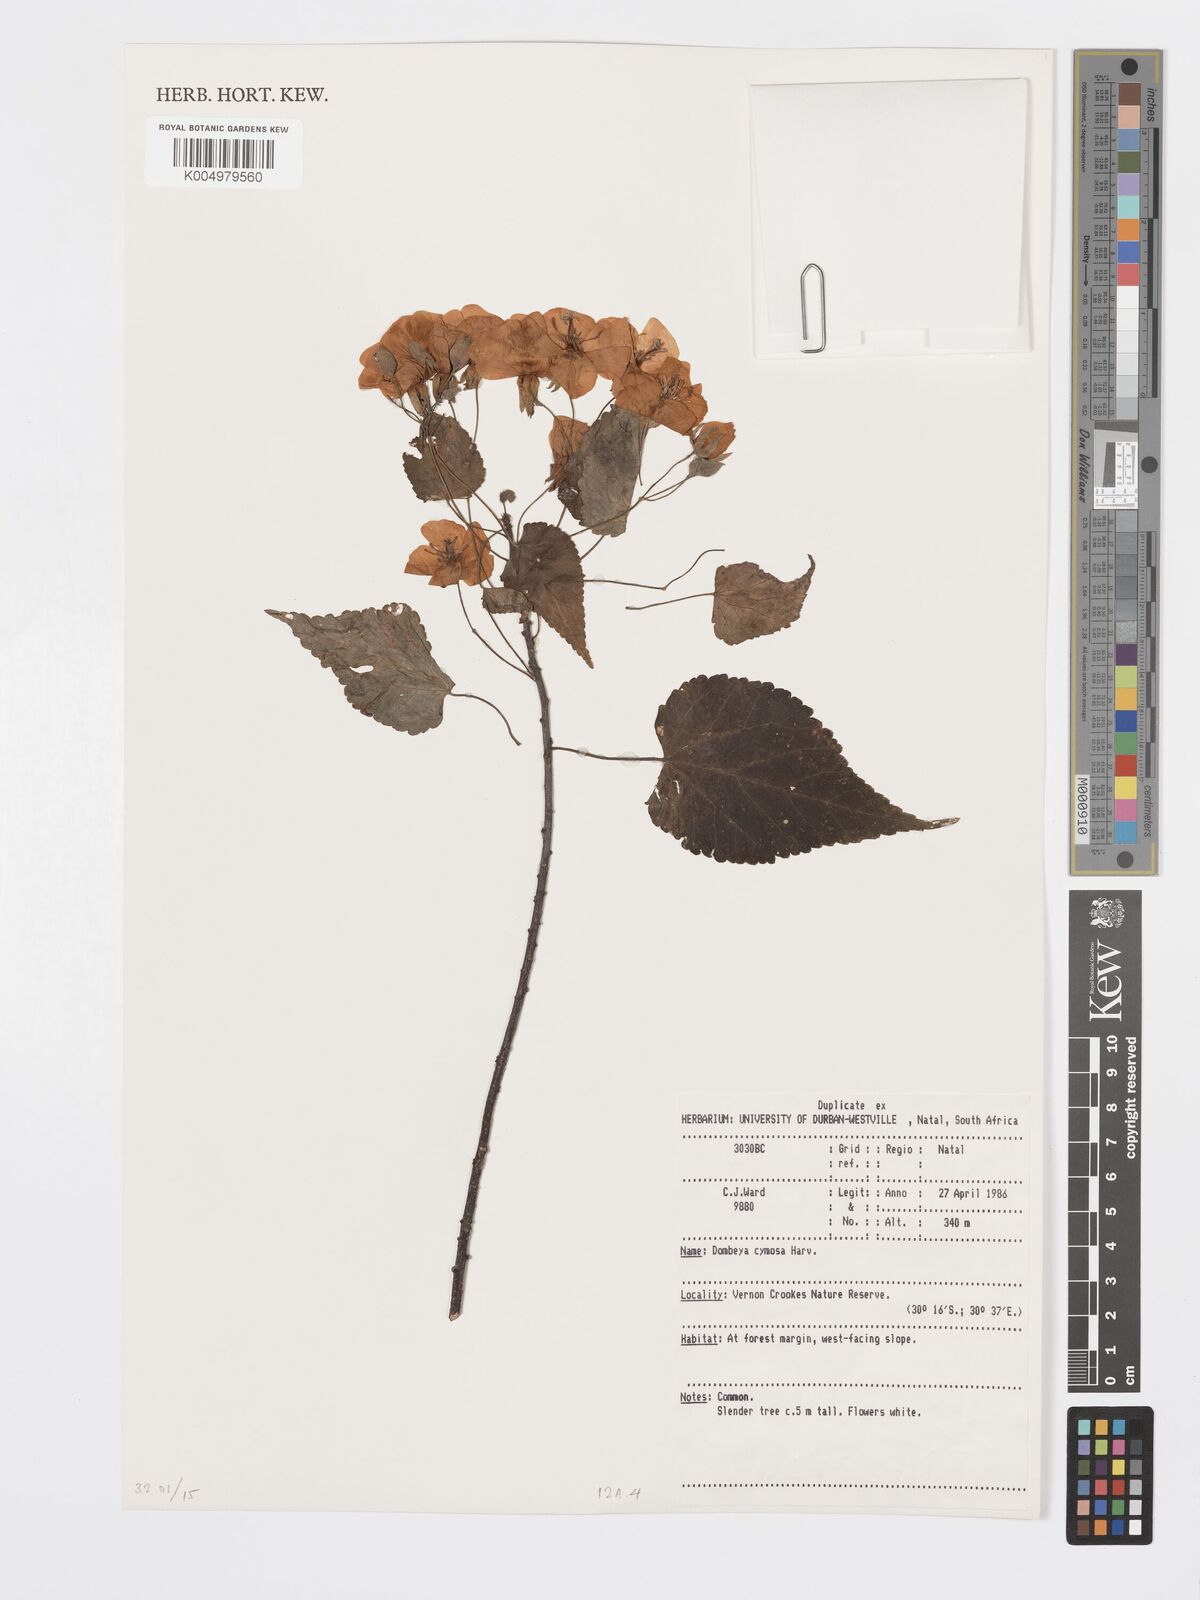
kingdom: Plantae
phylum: Tracheophyta
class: Magnoliopsida
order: Malvales
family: Malvaceae
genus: Dombeya
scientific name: Dombeya cymosa
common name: Hairless dombeya
